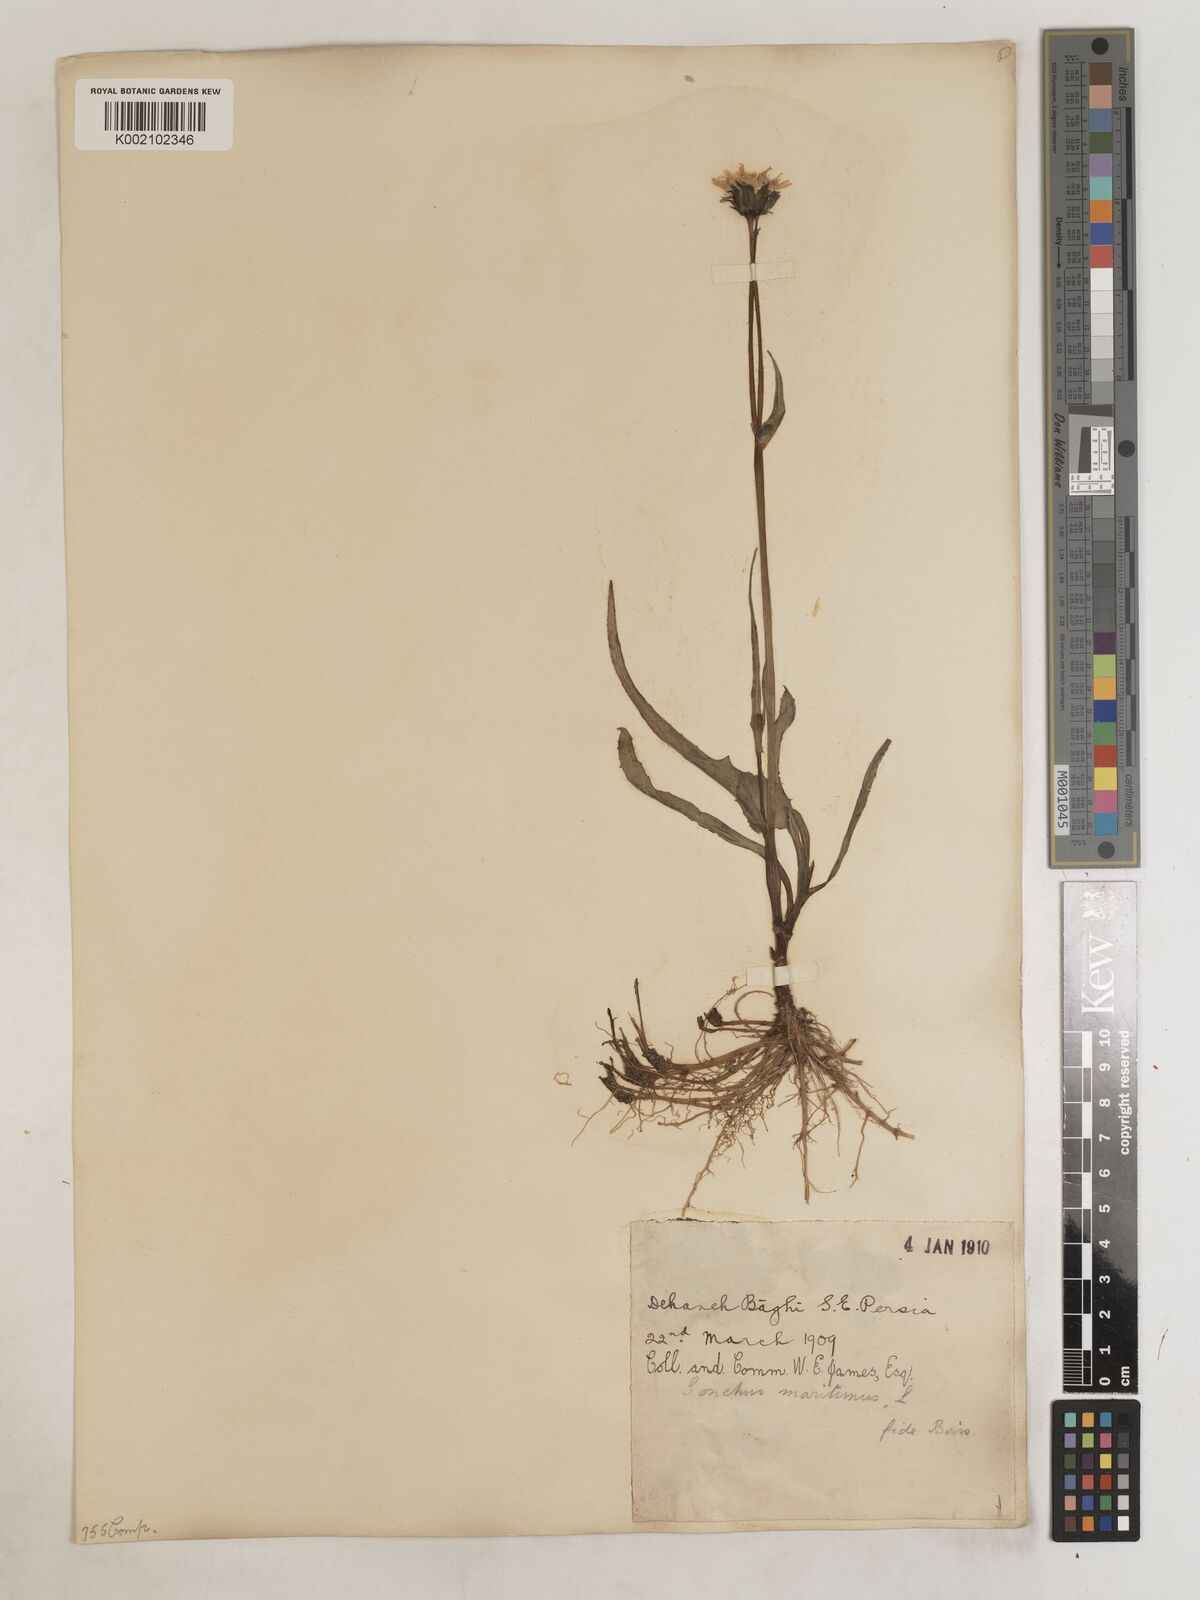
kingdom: Plantae
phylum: Tracheophyta
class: Magnoliopsida
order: Asterales
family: Asteraceae
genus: Sonchus
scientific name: Sonchus maritimus
